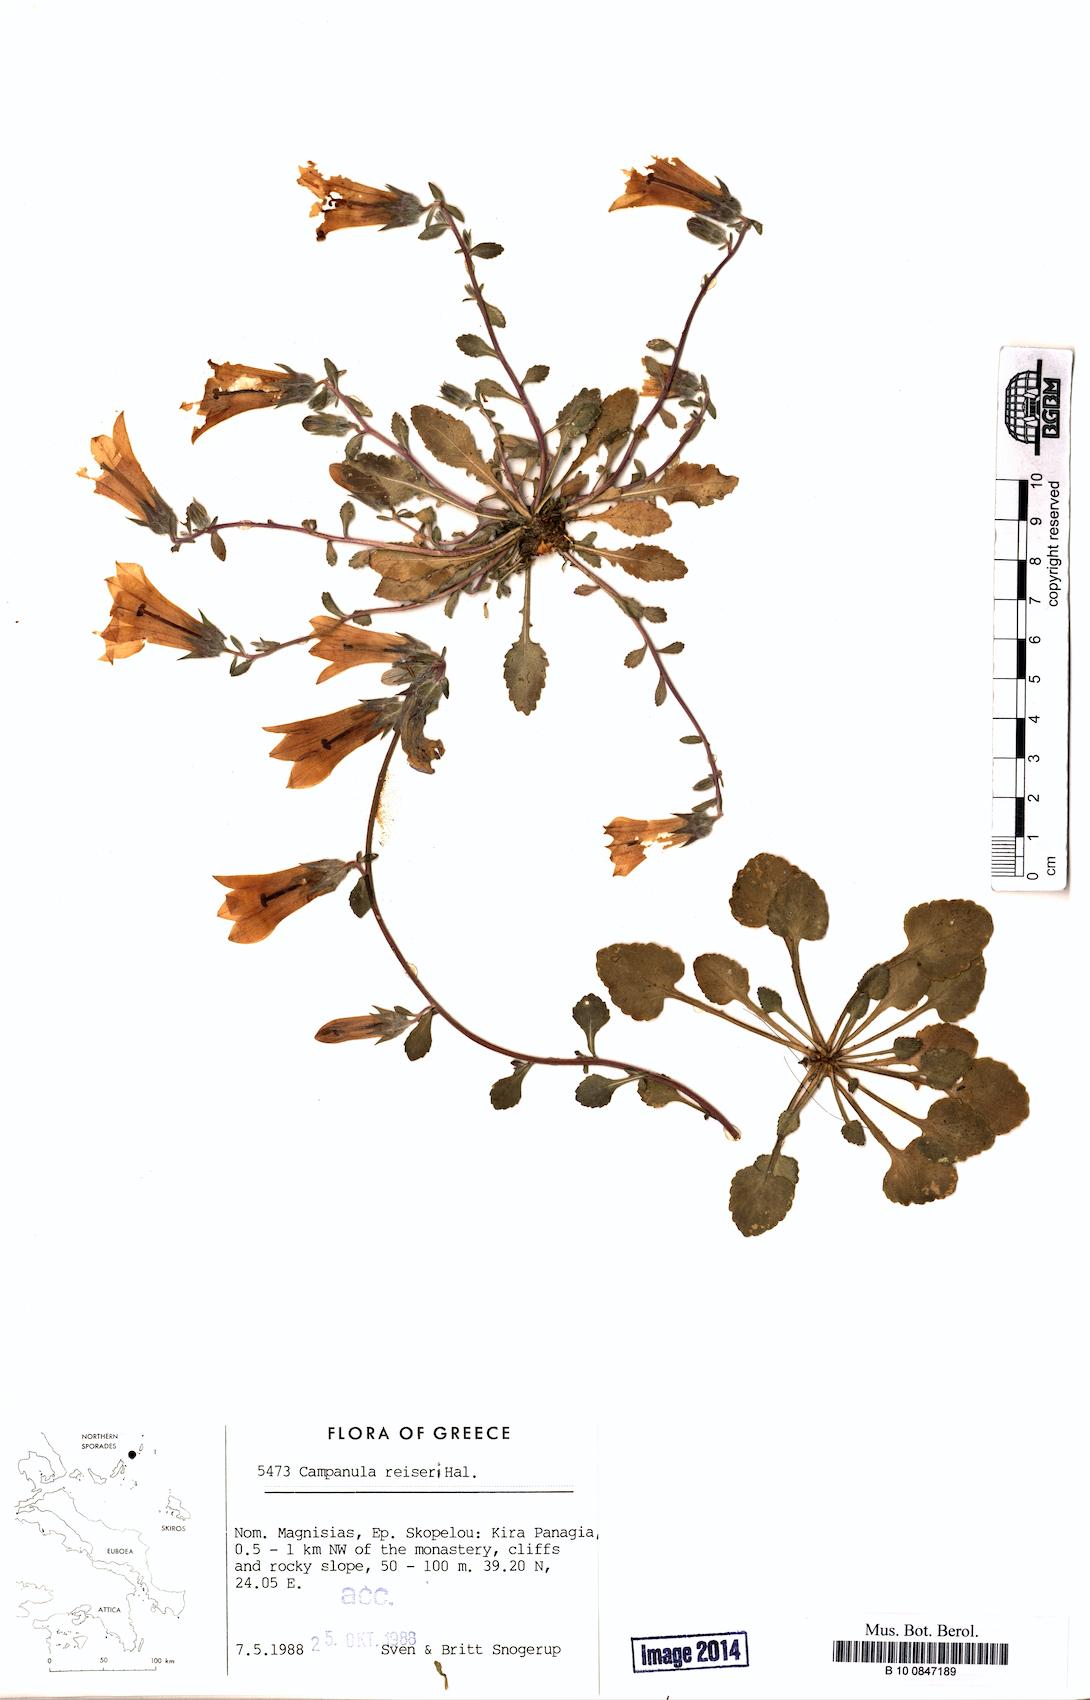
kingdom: Plantae
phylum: Tracheophyta
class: Magnoliopsida
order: Asterales
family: Campanulaceae
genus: Campanula
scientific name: Campanula reiseri
